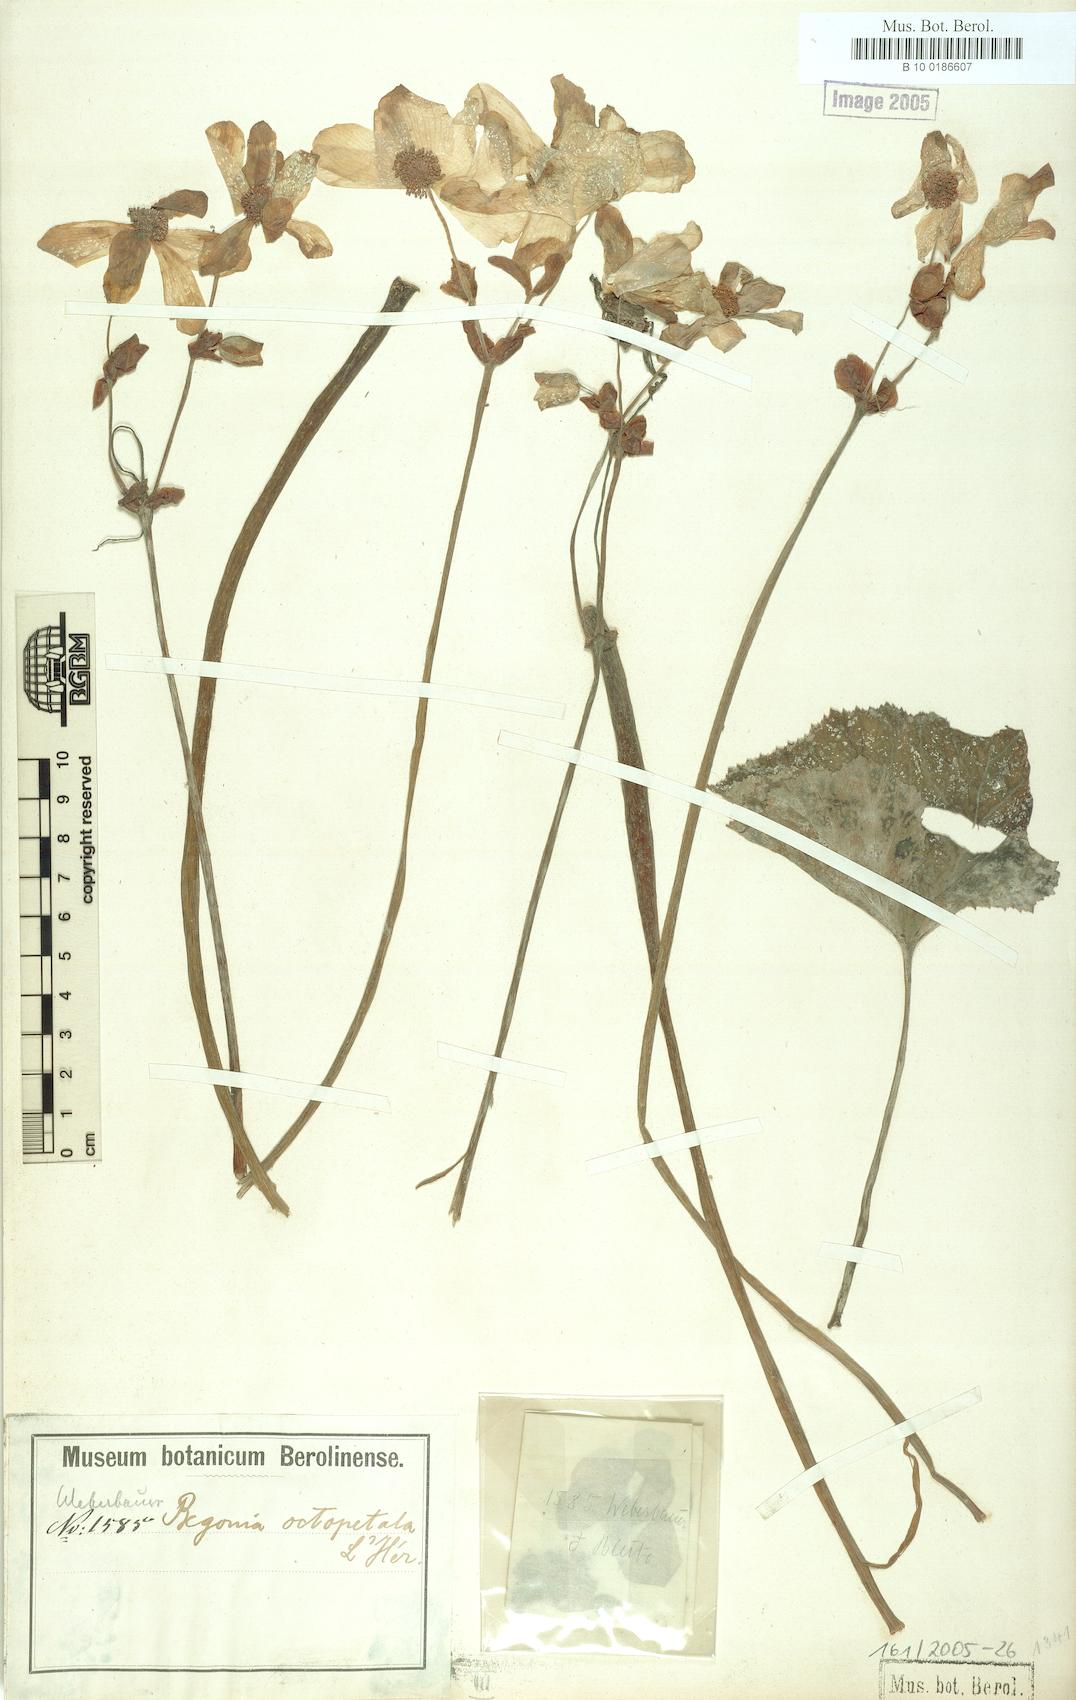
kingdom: Plantae
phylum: Tracheophyta
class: Magnoliopsida
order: Cucurbitales
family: Begoniaceae
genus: Begonia
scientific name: Begonia octopetala
